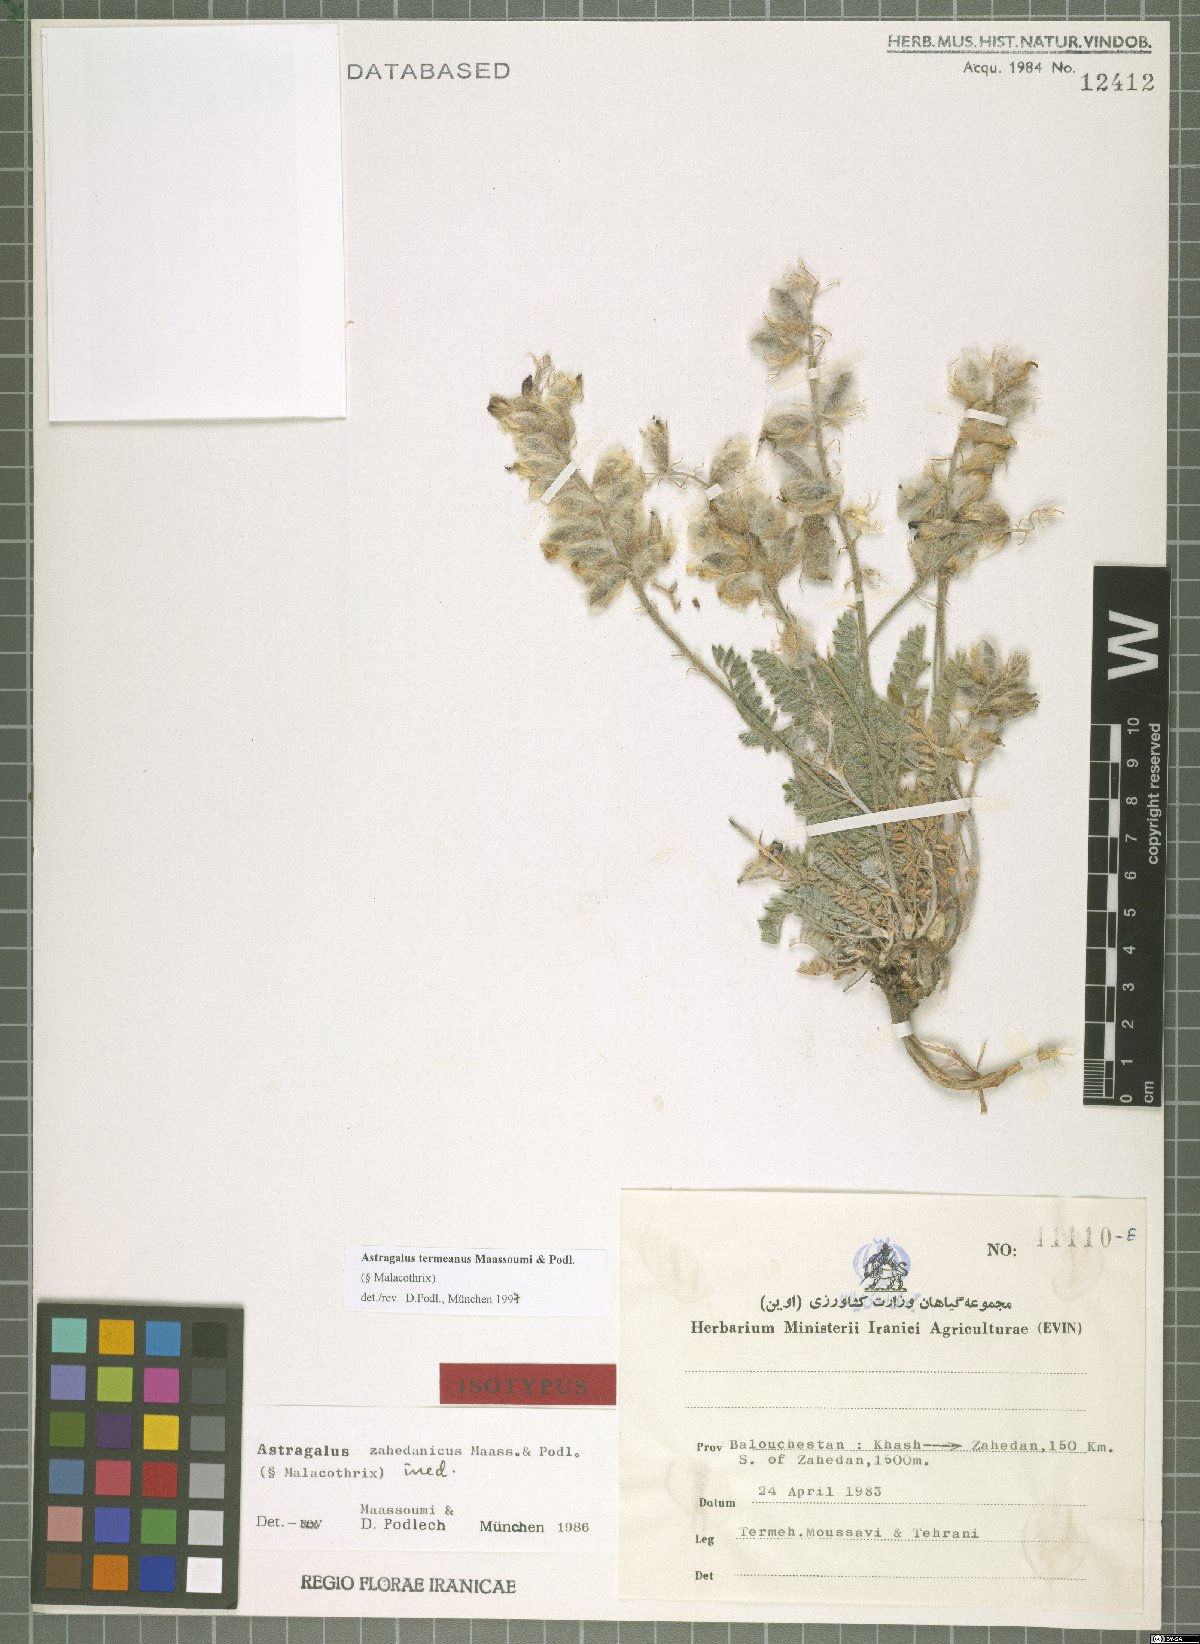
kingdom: Plantae
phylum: Tracheophyta
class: Magnoliopsida
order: Fabales
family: Fabaceae
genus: Astragalus
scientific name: Astragalus termeanus
